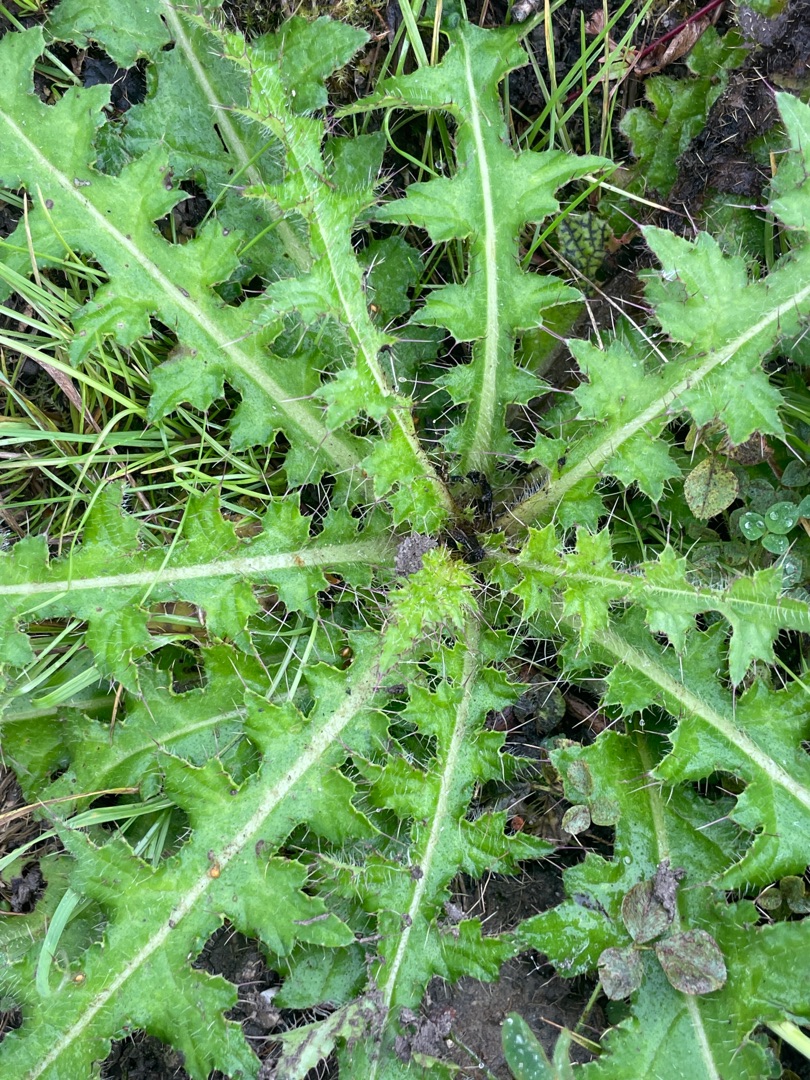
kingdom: Plantae
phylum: Tracheophyta
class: Magnoliopsida
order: Asterales
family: Asteraceae
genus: Cirsium
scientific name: Cirsium palustre
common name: Kær-tidsel
